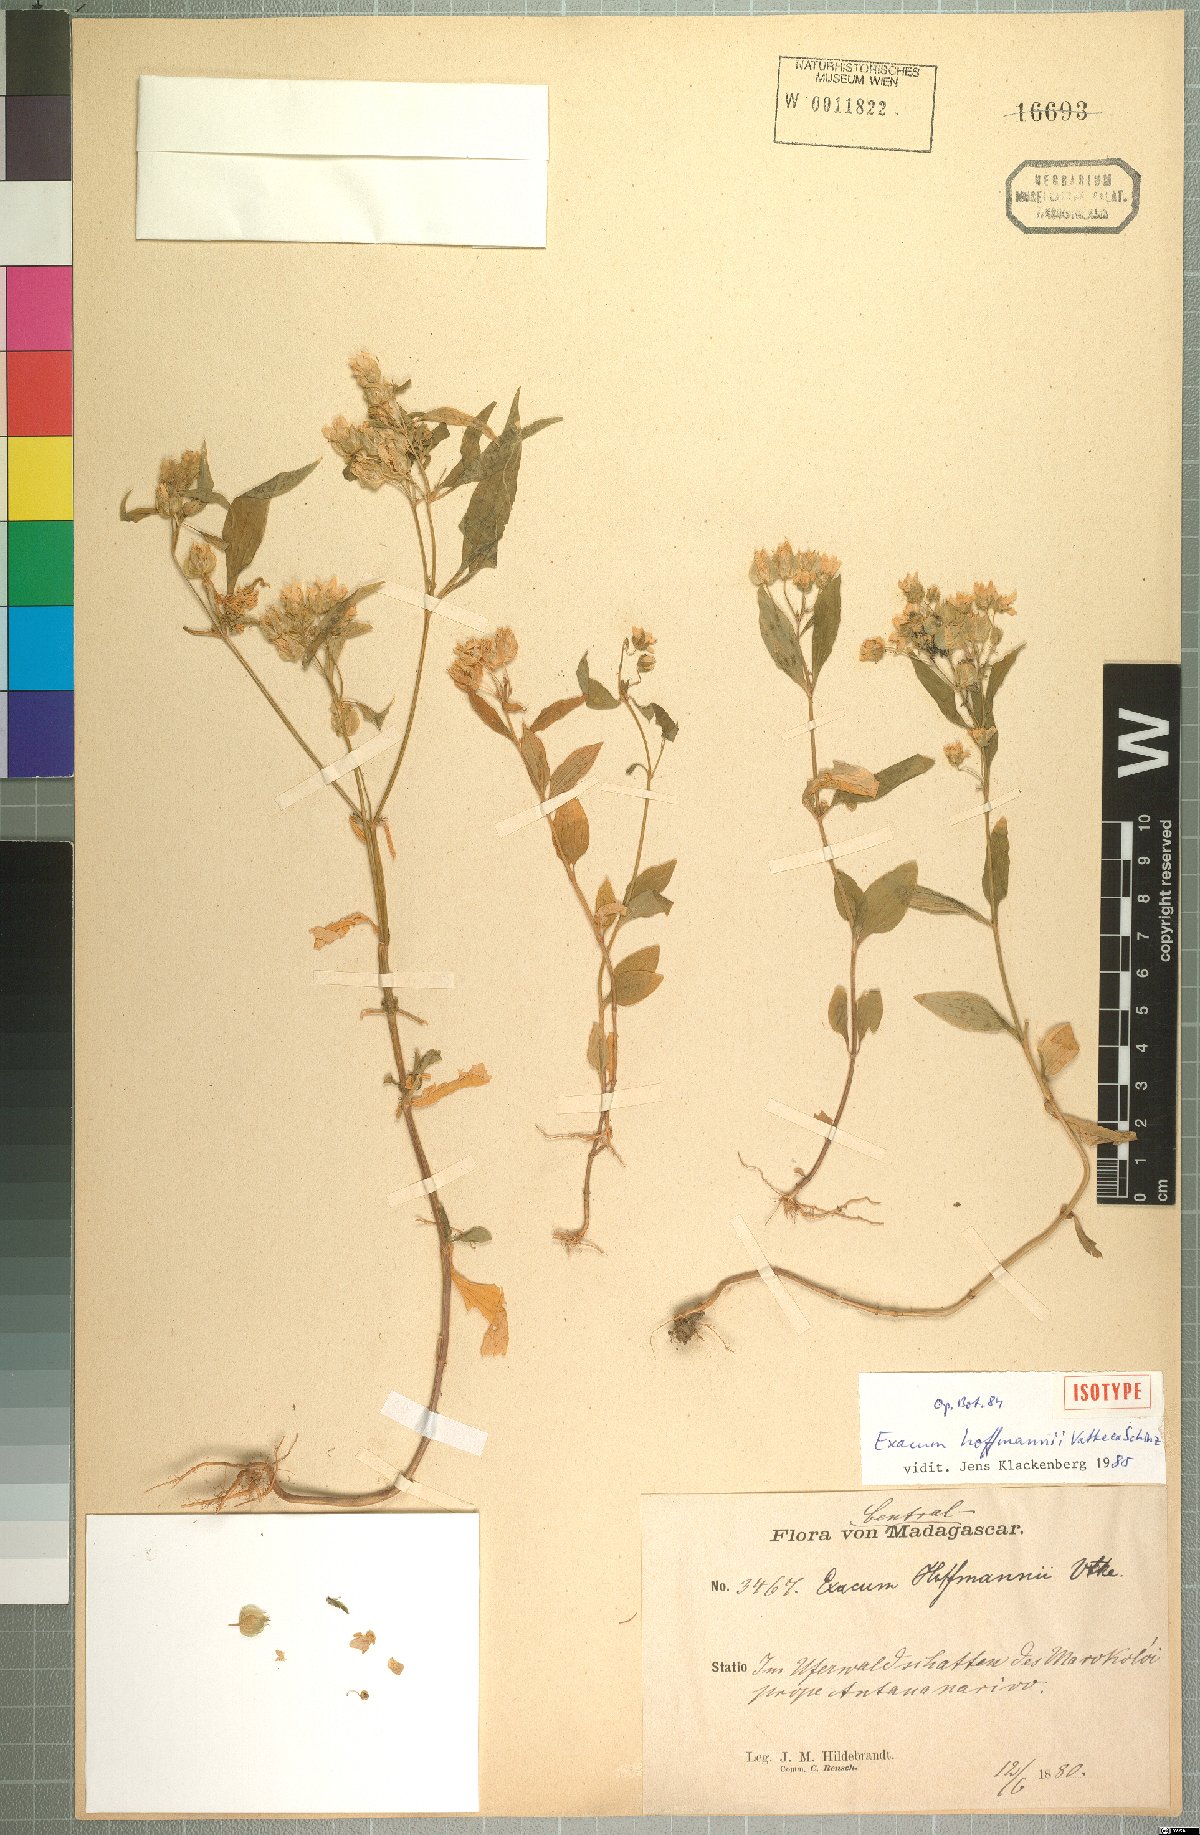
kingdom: Plantae
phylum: Tracheophyta
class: Magnoliopsida
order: Gentianales
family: Gentianaceae
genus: Exacum
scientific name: Exacum hoffmannii
